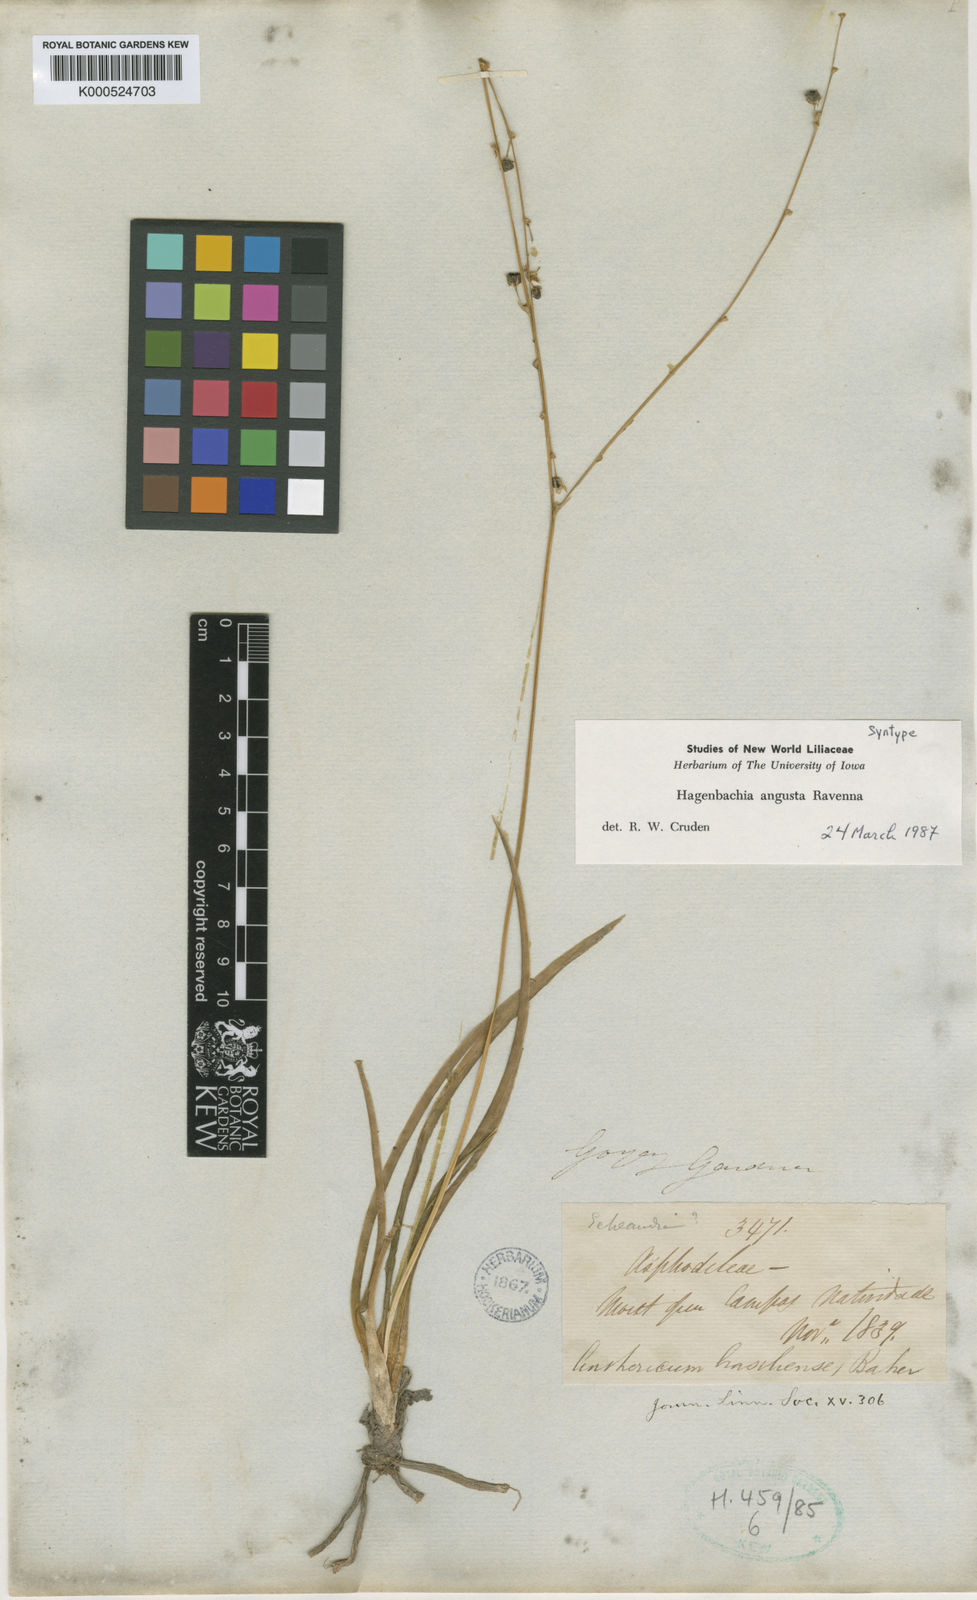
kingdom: Plantae
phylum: Tracheophyta
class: Liliopsida
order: Asparagales
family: Asparagaceae
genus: Hagenbachia
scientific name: Hagenbachia matogrossensis
